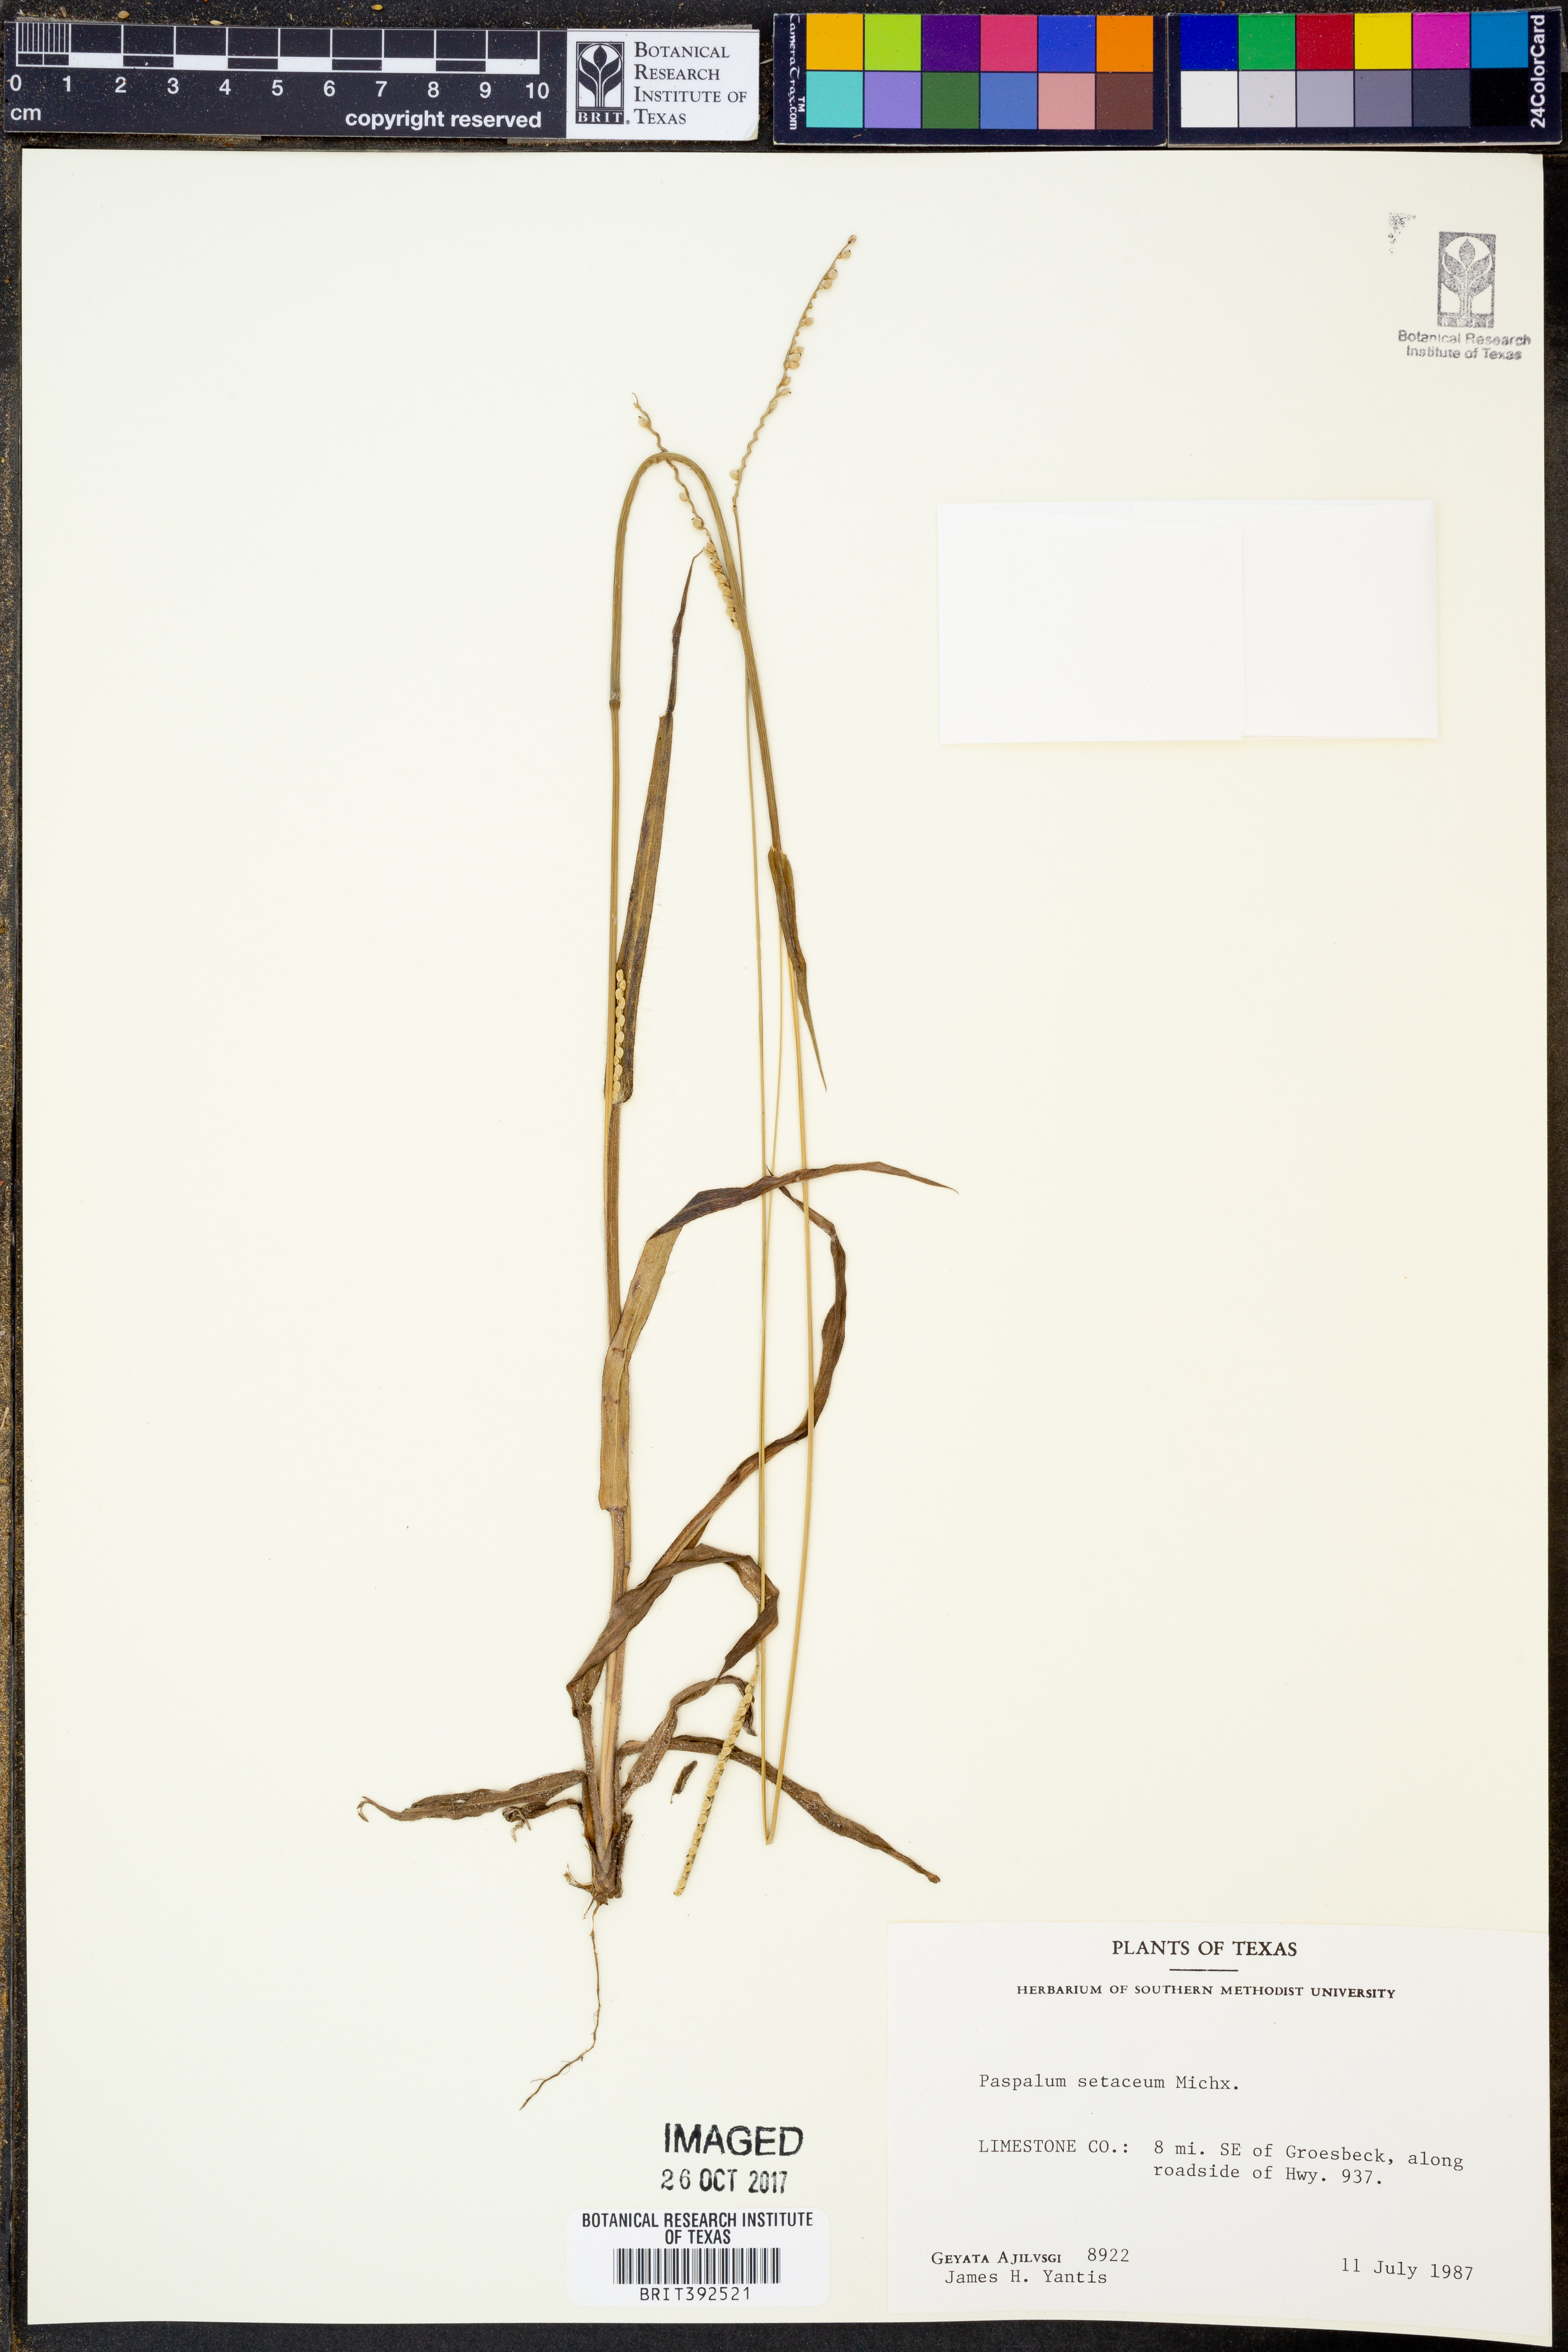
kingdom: Plantae
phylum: Tracheophyta
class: Liliopsida
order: Poales
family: Poaceae
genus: Paspalum
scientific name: Paspalum setaceum
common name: Slender paspalum
